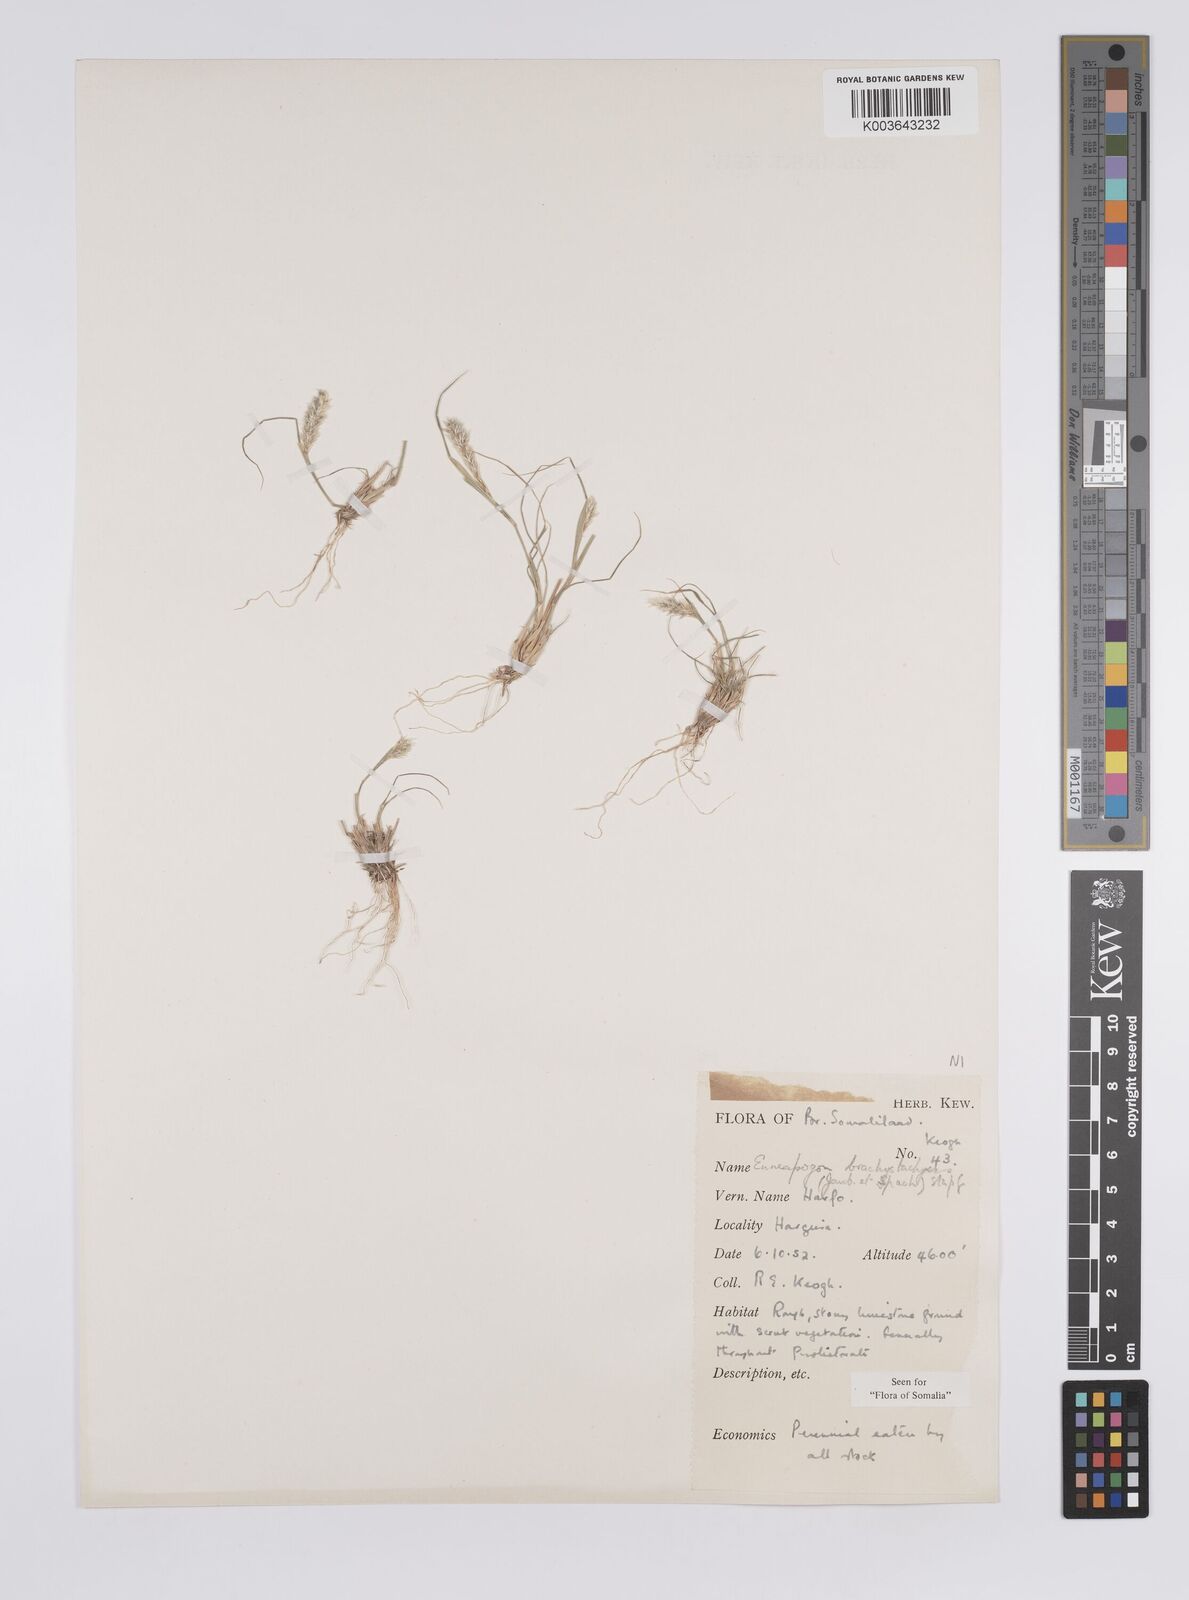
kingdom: Plantae
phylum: Tracheophyta
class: Liliopsida
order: Poales
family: Poaceae
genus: Enneapogon
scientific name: Enneapogon desvauxii
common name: Feather pappus grass
